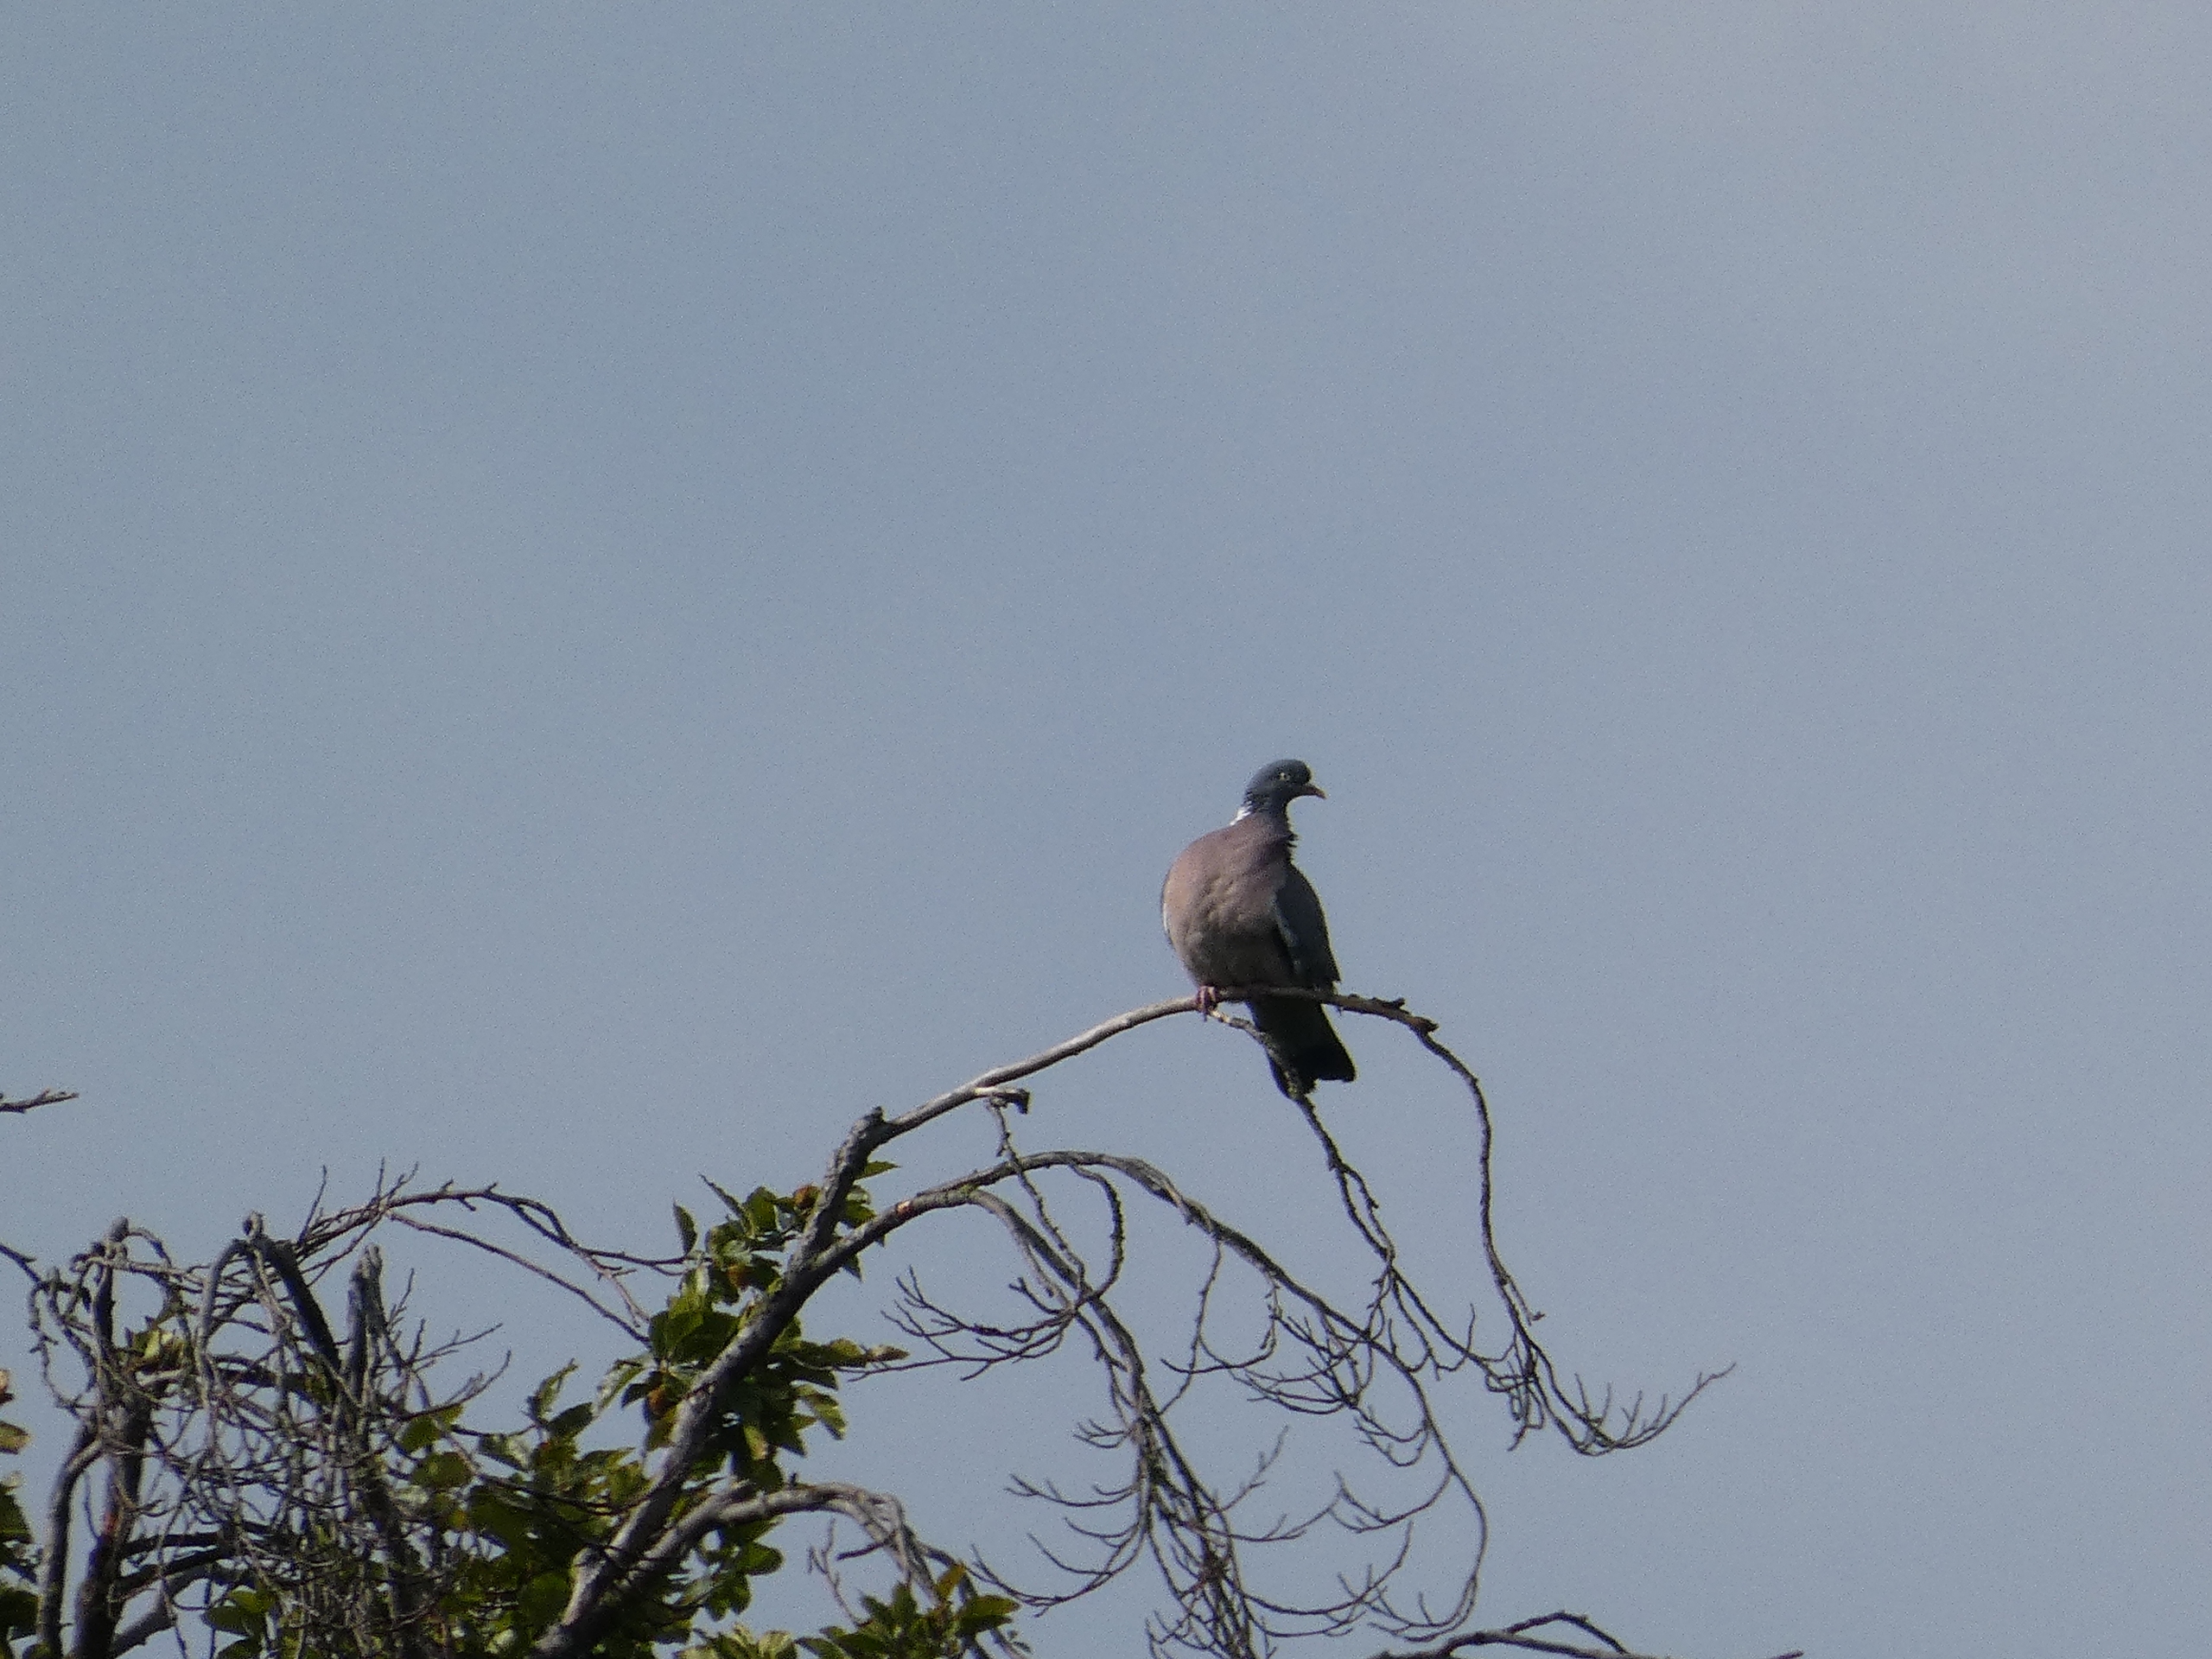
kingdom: Animalia
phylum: Chordata
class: Aves
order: Columbiformes
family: Columbidae
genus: Columba
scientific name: Columba palumbus
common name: Ringdue
